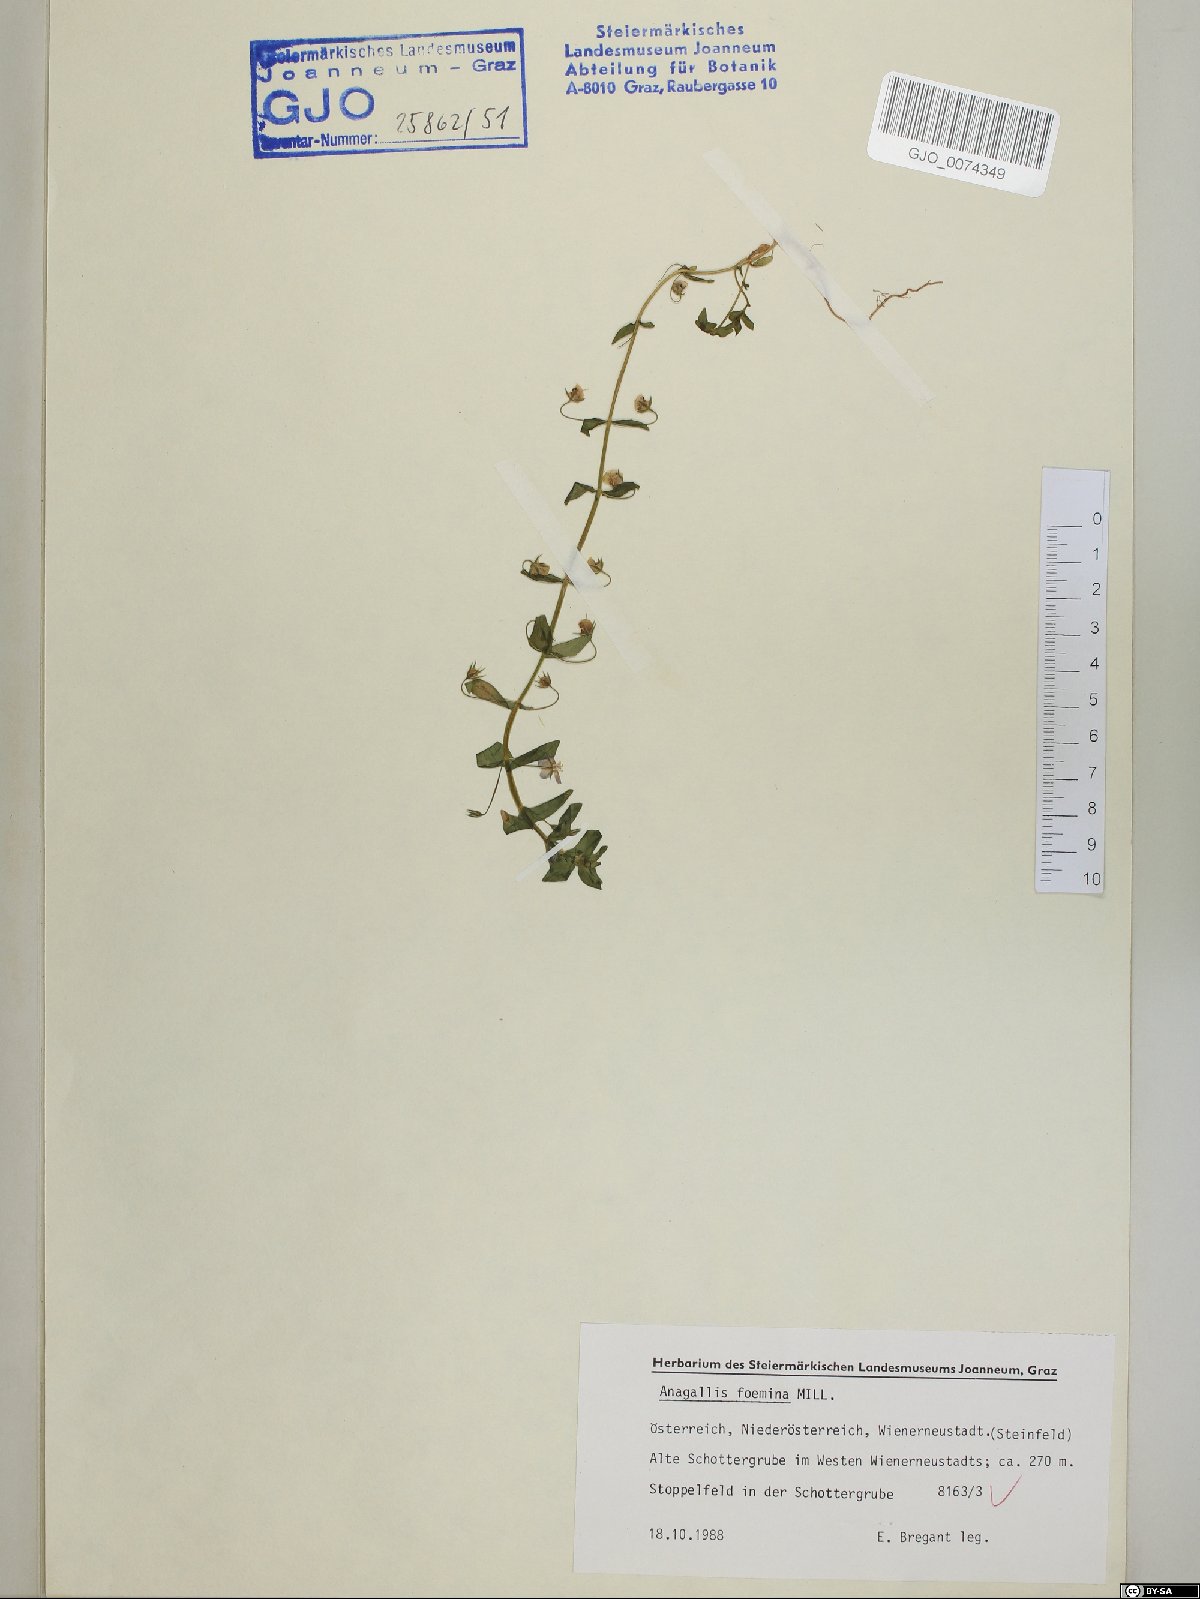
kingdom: Plantae
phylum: Tracheophyta
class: Magnoliopsida
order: Ericales
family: Primulaceae
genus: Lysimachia
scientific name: Lysimachia foemina
